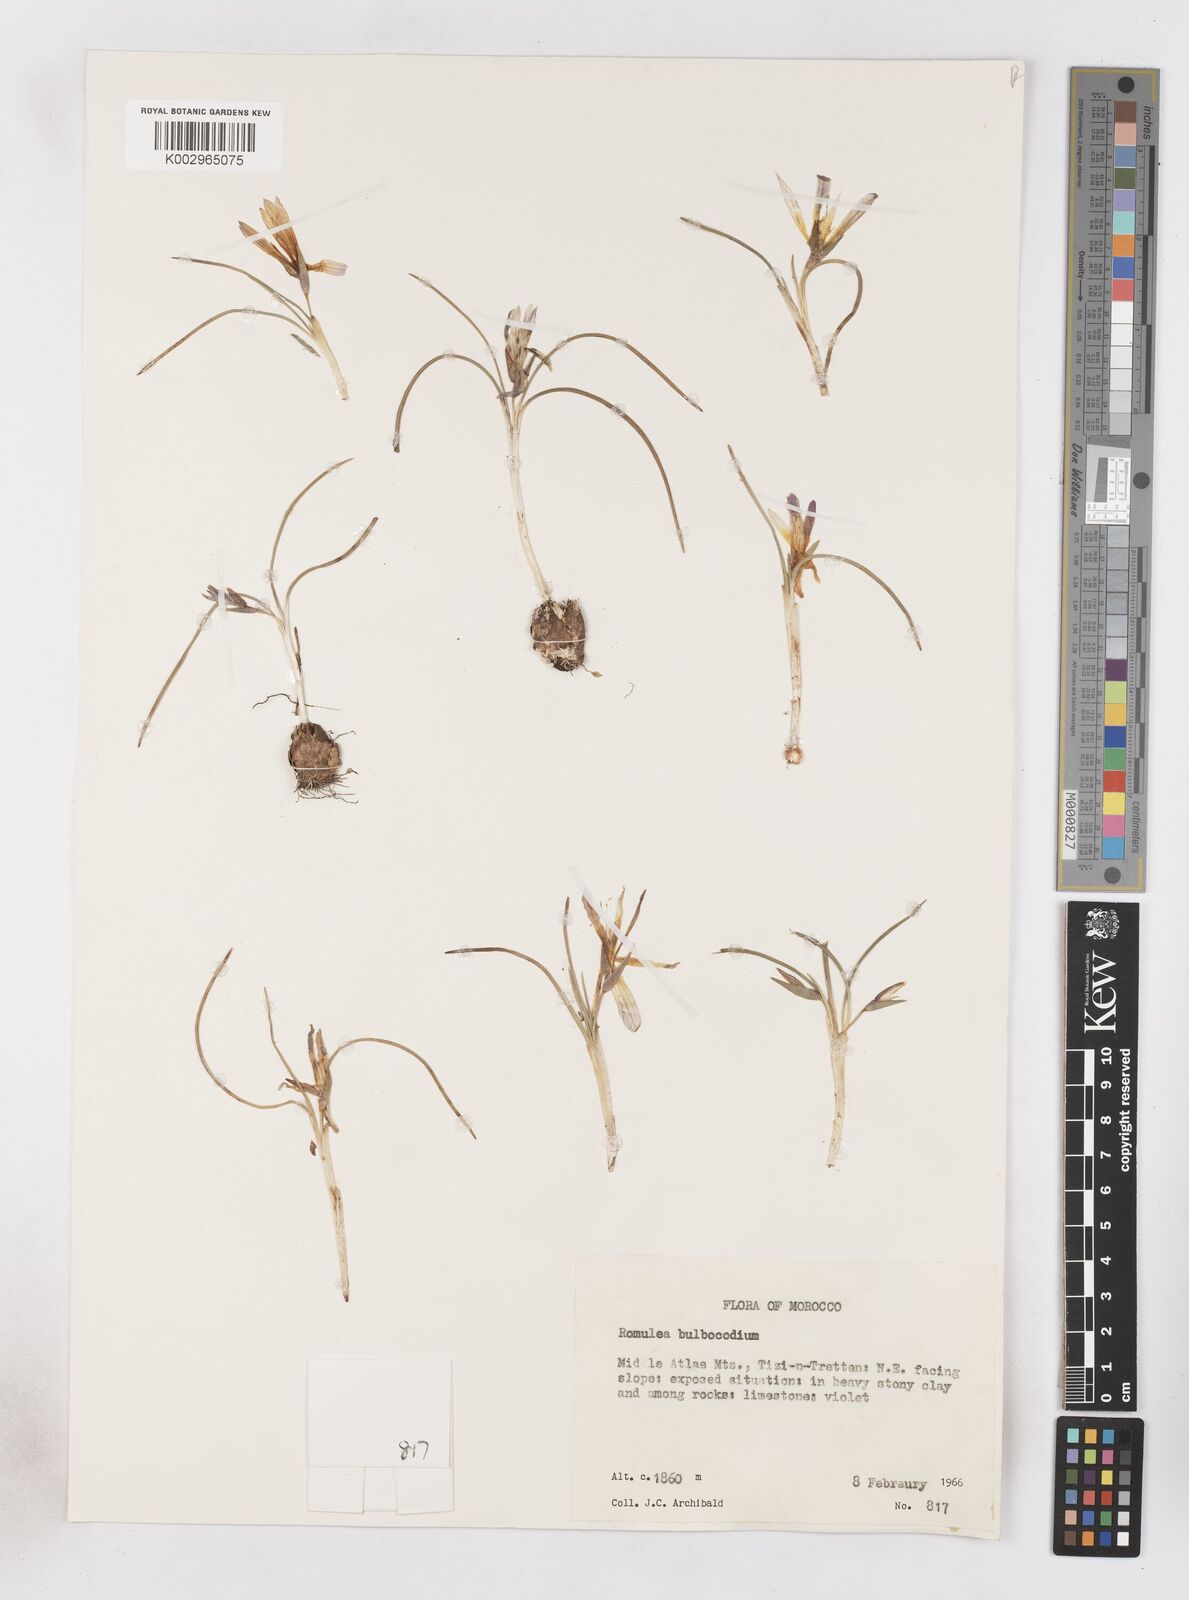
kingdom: Plantae
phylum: Tracheophyta
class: Liliopsida
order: Asparagales
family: Iridaceae
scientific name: Iridaceae
